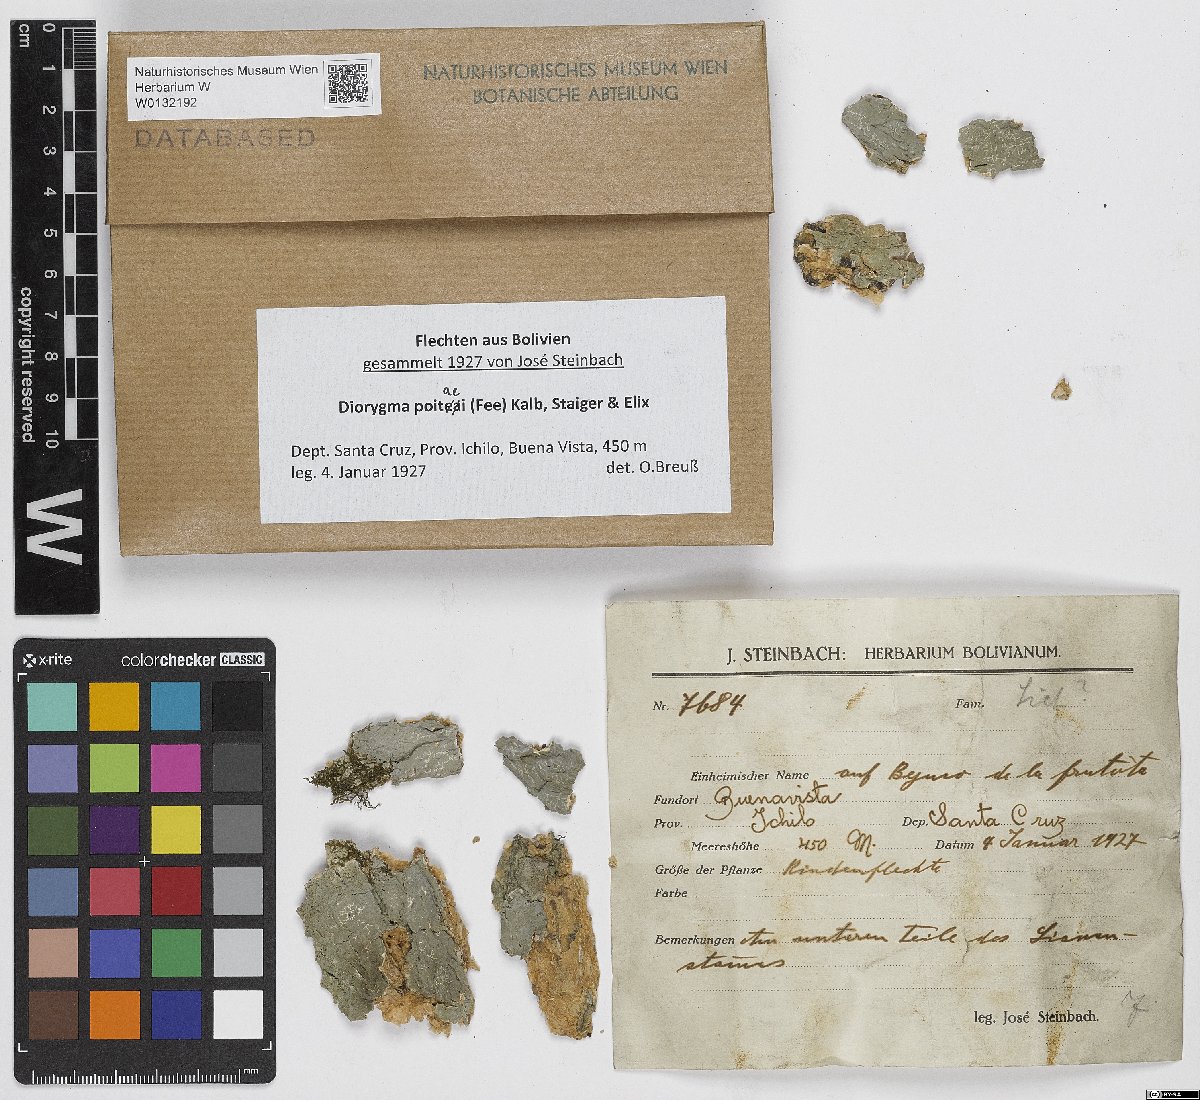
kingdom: Fungi
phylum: Ascomycota
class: Lecanoromycetes
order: Ostropales
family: Graphidaceae
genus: Diorygma
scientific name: Diorygma poitaei
